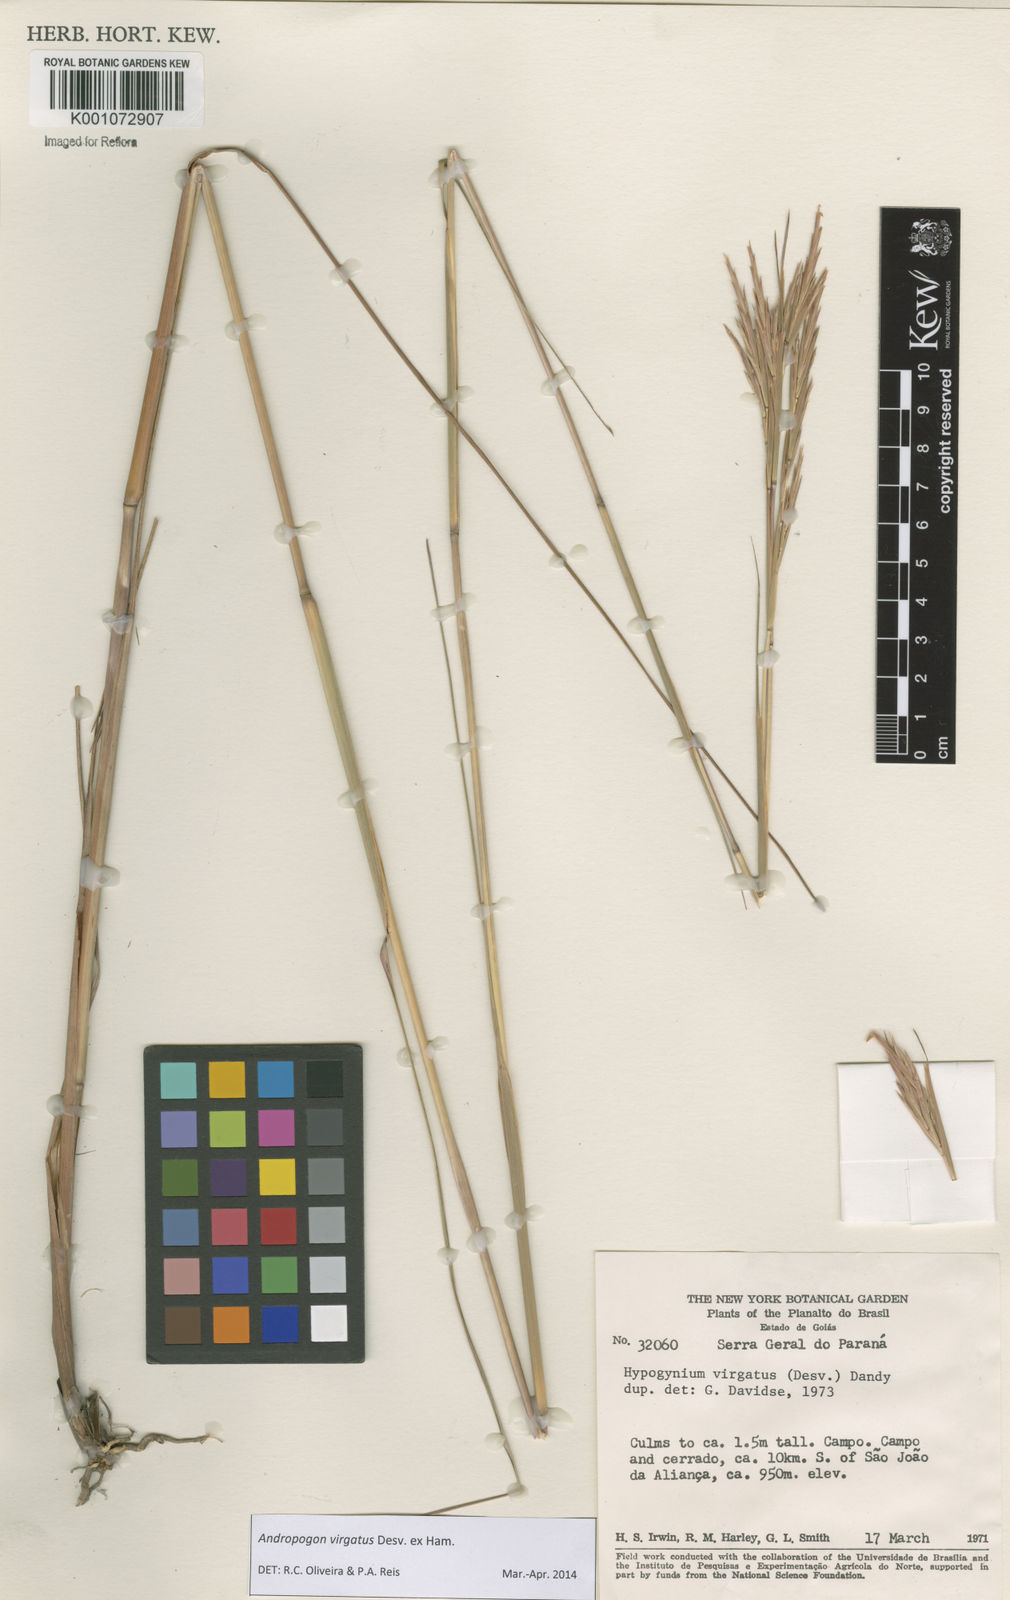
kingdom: Plantae
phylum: Tracheophyta
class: Liliopsida
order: Poales
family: Poaceae
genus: Andropogon
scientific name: Andropogon virgatus
